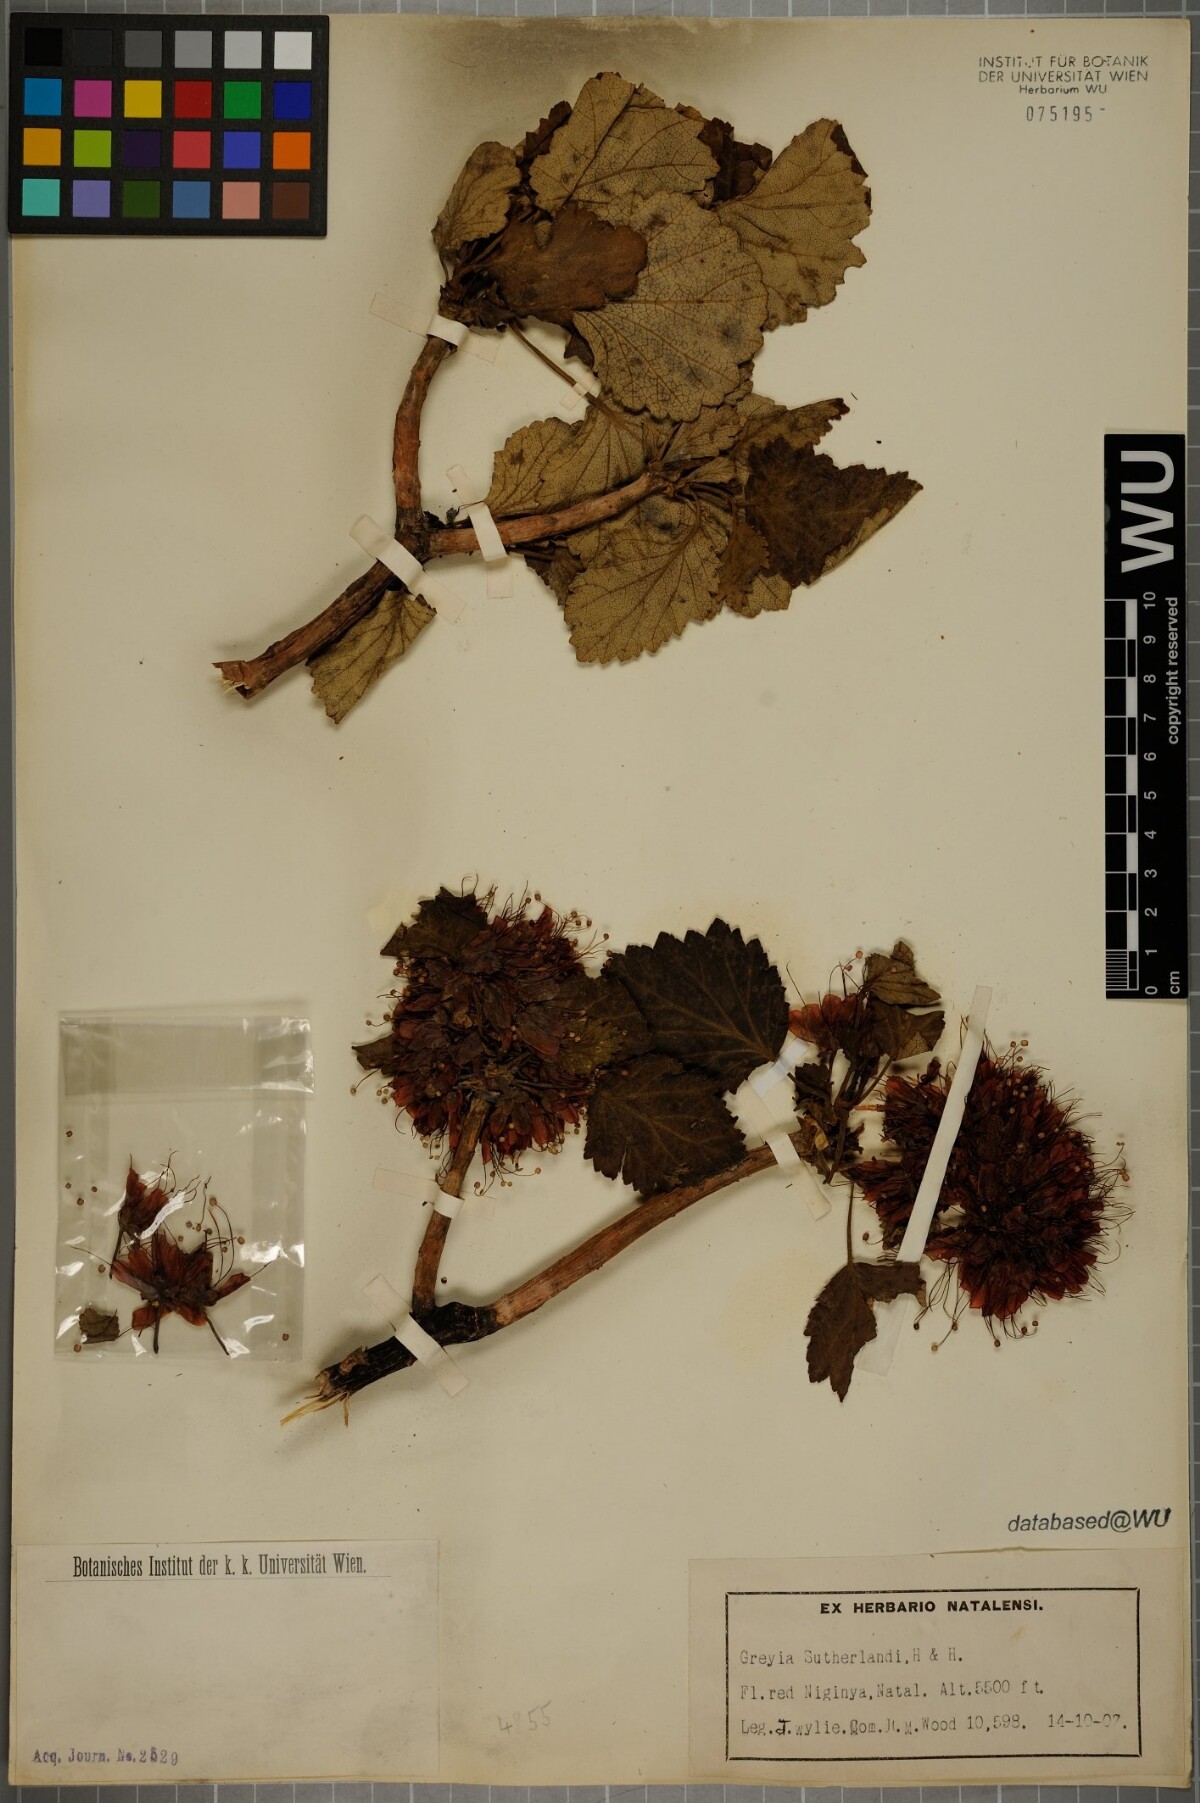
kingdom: Plantae
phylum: Tracheophyta
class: Magnoliopsida
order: Geraniales
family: Francoaceae
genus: Greyia
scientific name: Greyia sutherlandii
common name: Glossy bottlebrush
